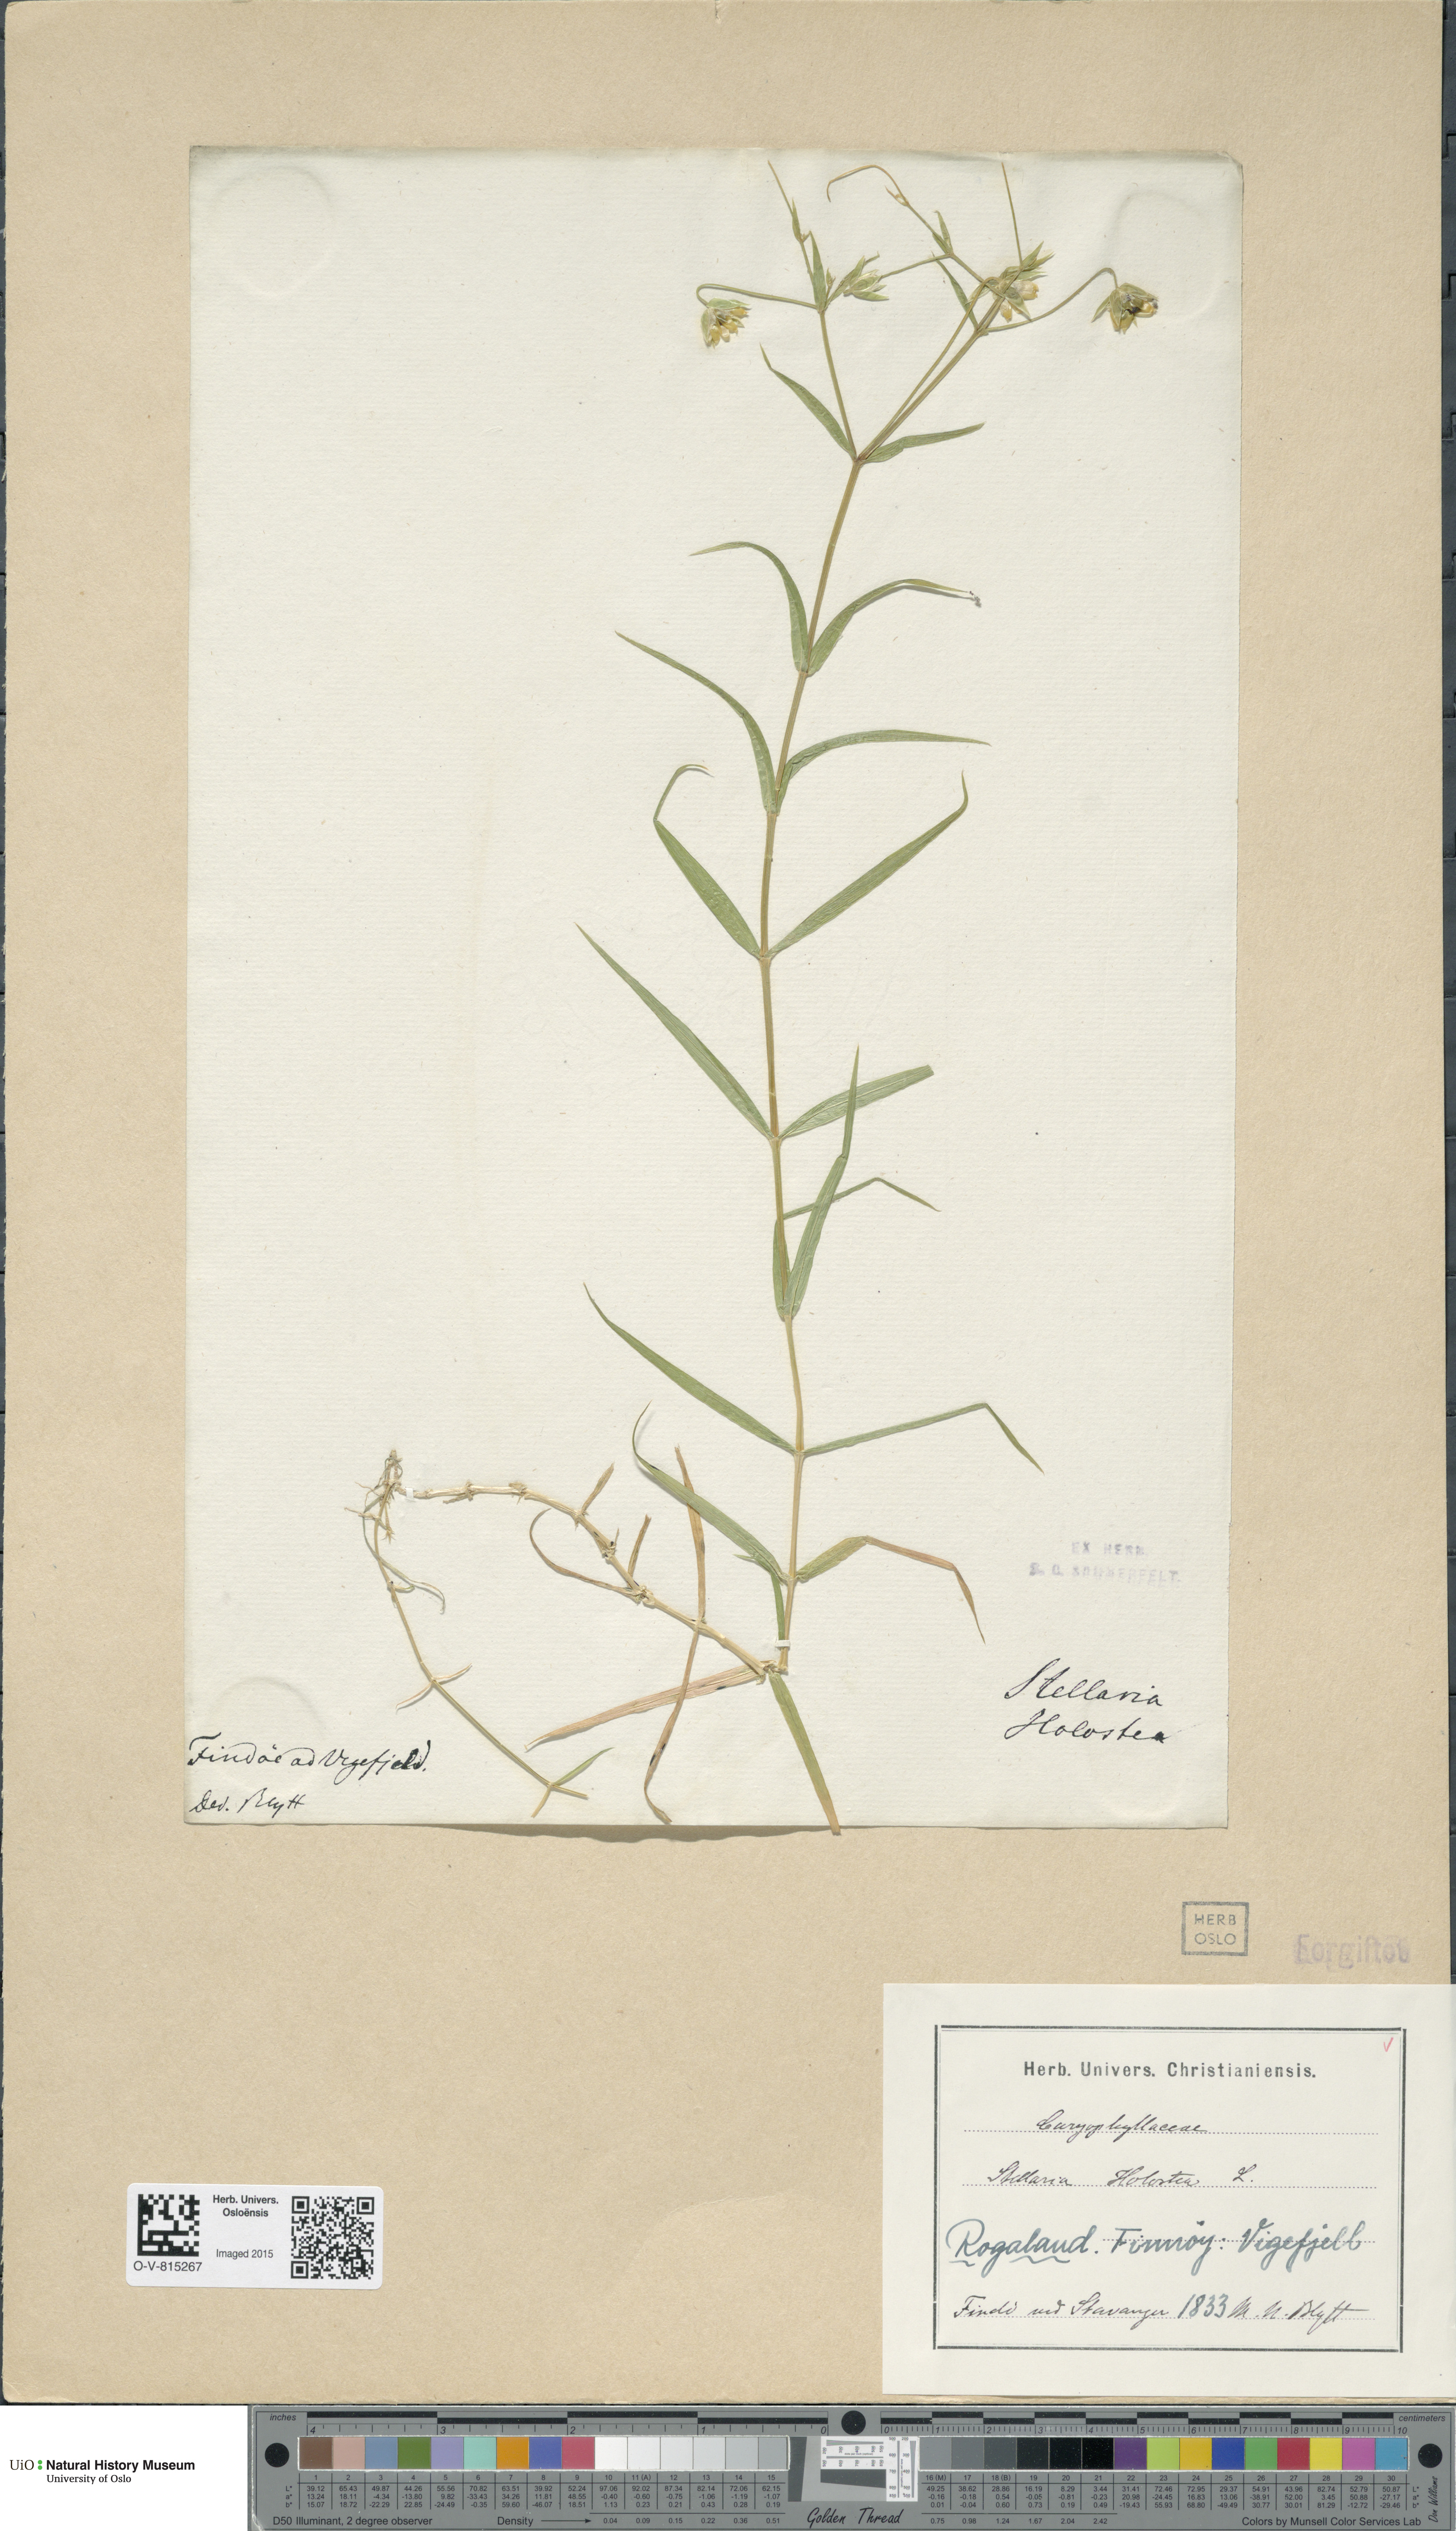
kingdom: Plantae
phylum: Tracheophyta
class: Magnoliopsida
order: Caryophyllales
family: Caryophyllaceae
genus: Rabelera
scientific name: Rabelera holostea
